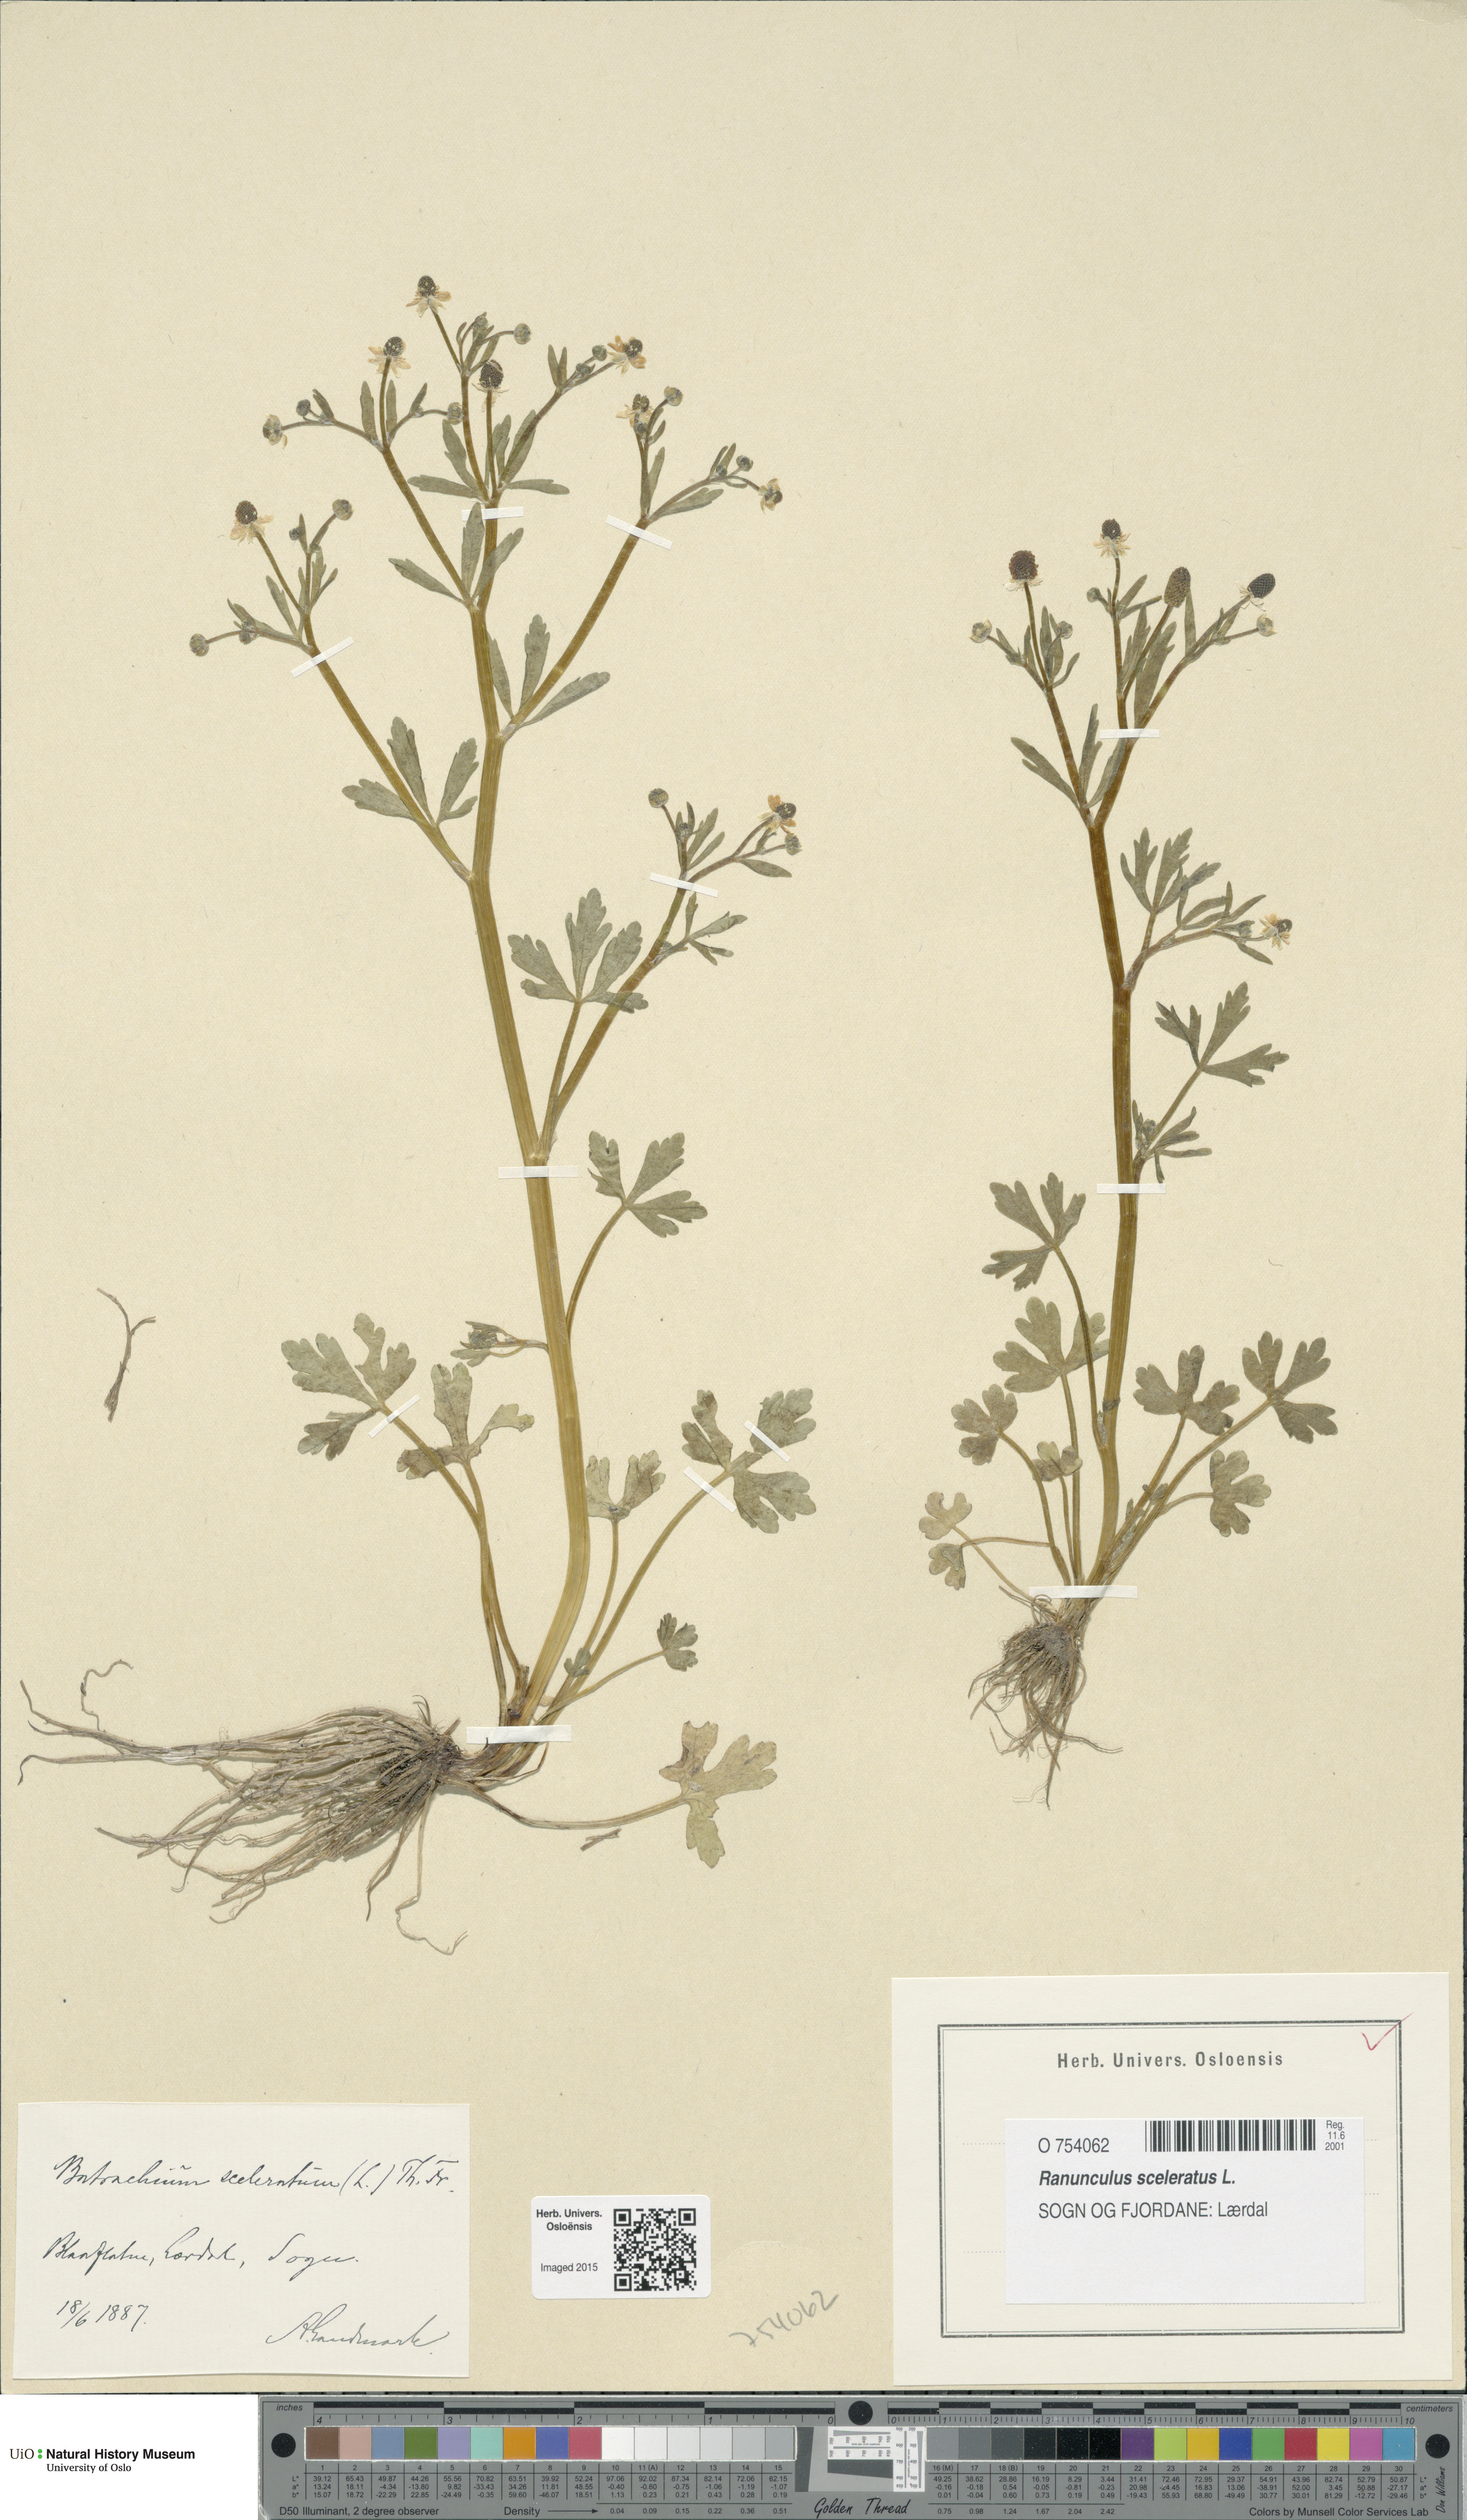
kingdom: Plantae
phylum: Tracheophyta
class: Magnoliopsida
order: Ranunculales
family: Ranunculaceae
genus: Ranunculus
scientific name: Ranunculus sceleratus
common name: Celery-leaved buttercup
